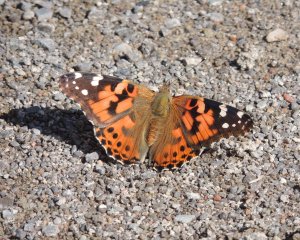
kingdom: Animalia
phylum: Arthropoda
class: Insecta
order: Lepidoptera
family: Nymphalidae
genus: Vanessa
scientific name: Vanessa cardui
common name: Painted Lady
